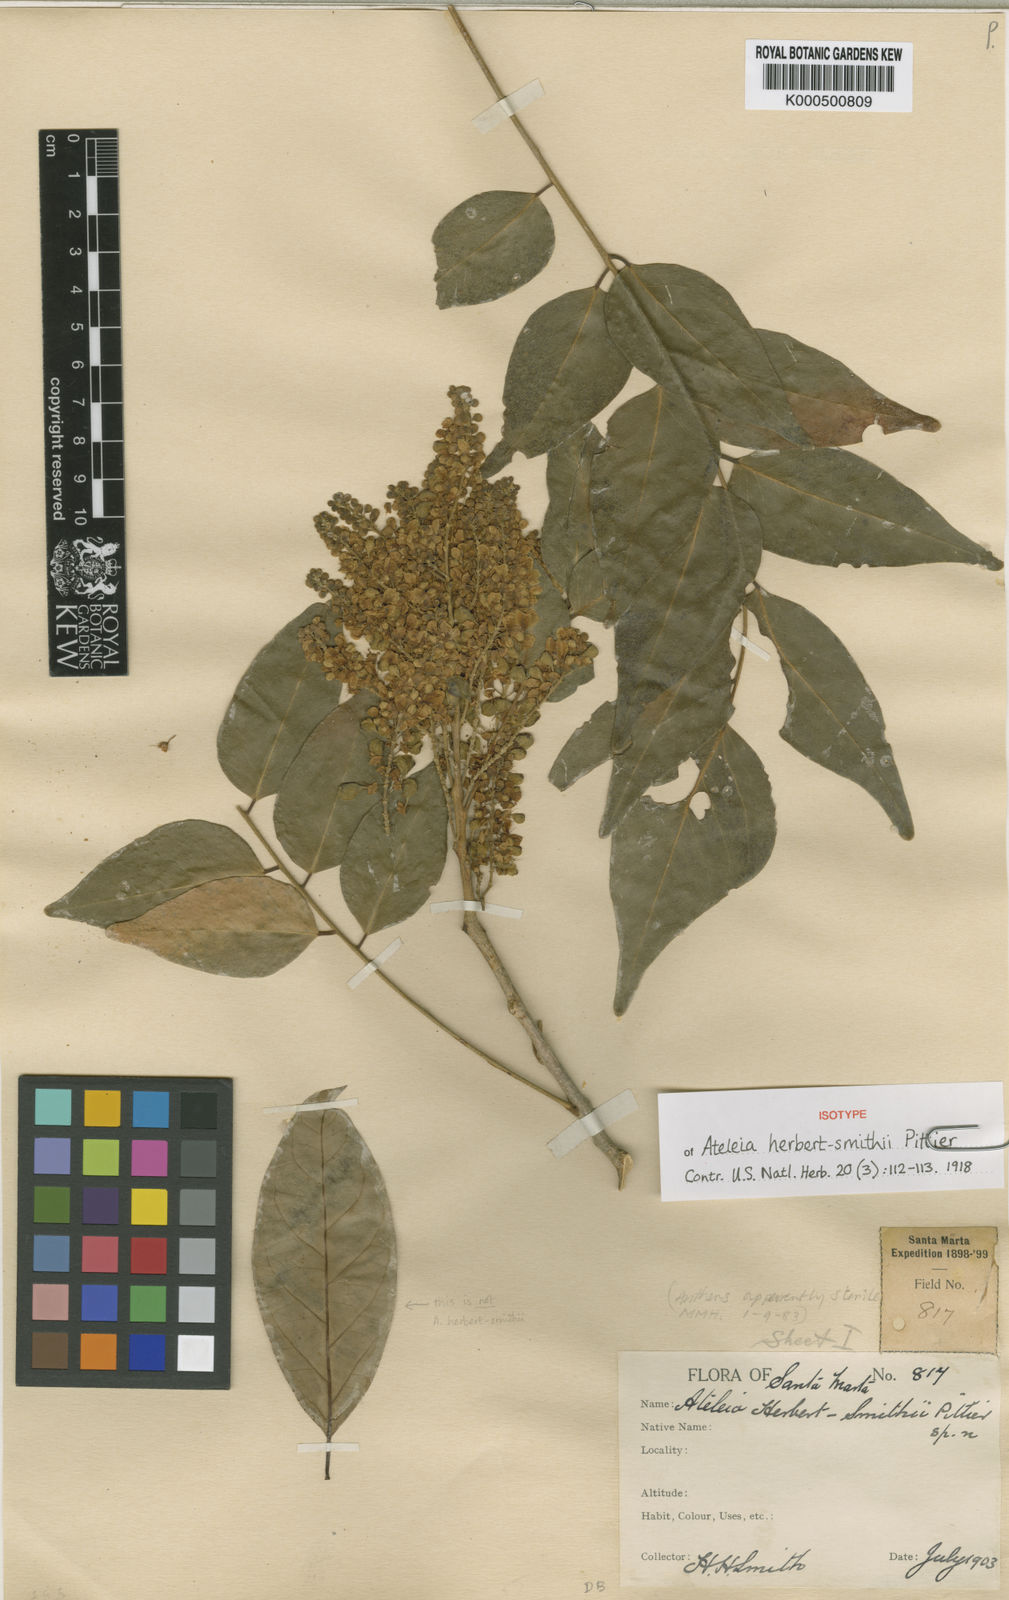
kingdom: Plantae
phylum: Tracheophyta
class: Magnoliopsida
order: Fabales
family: Fabaceae
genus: Ateleia
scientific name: Ateleia herbert-smithii
